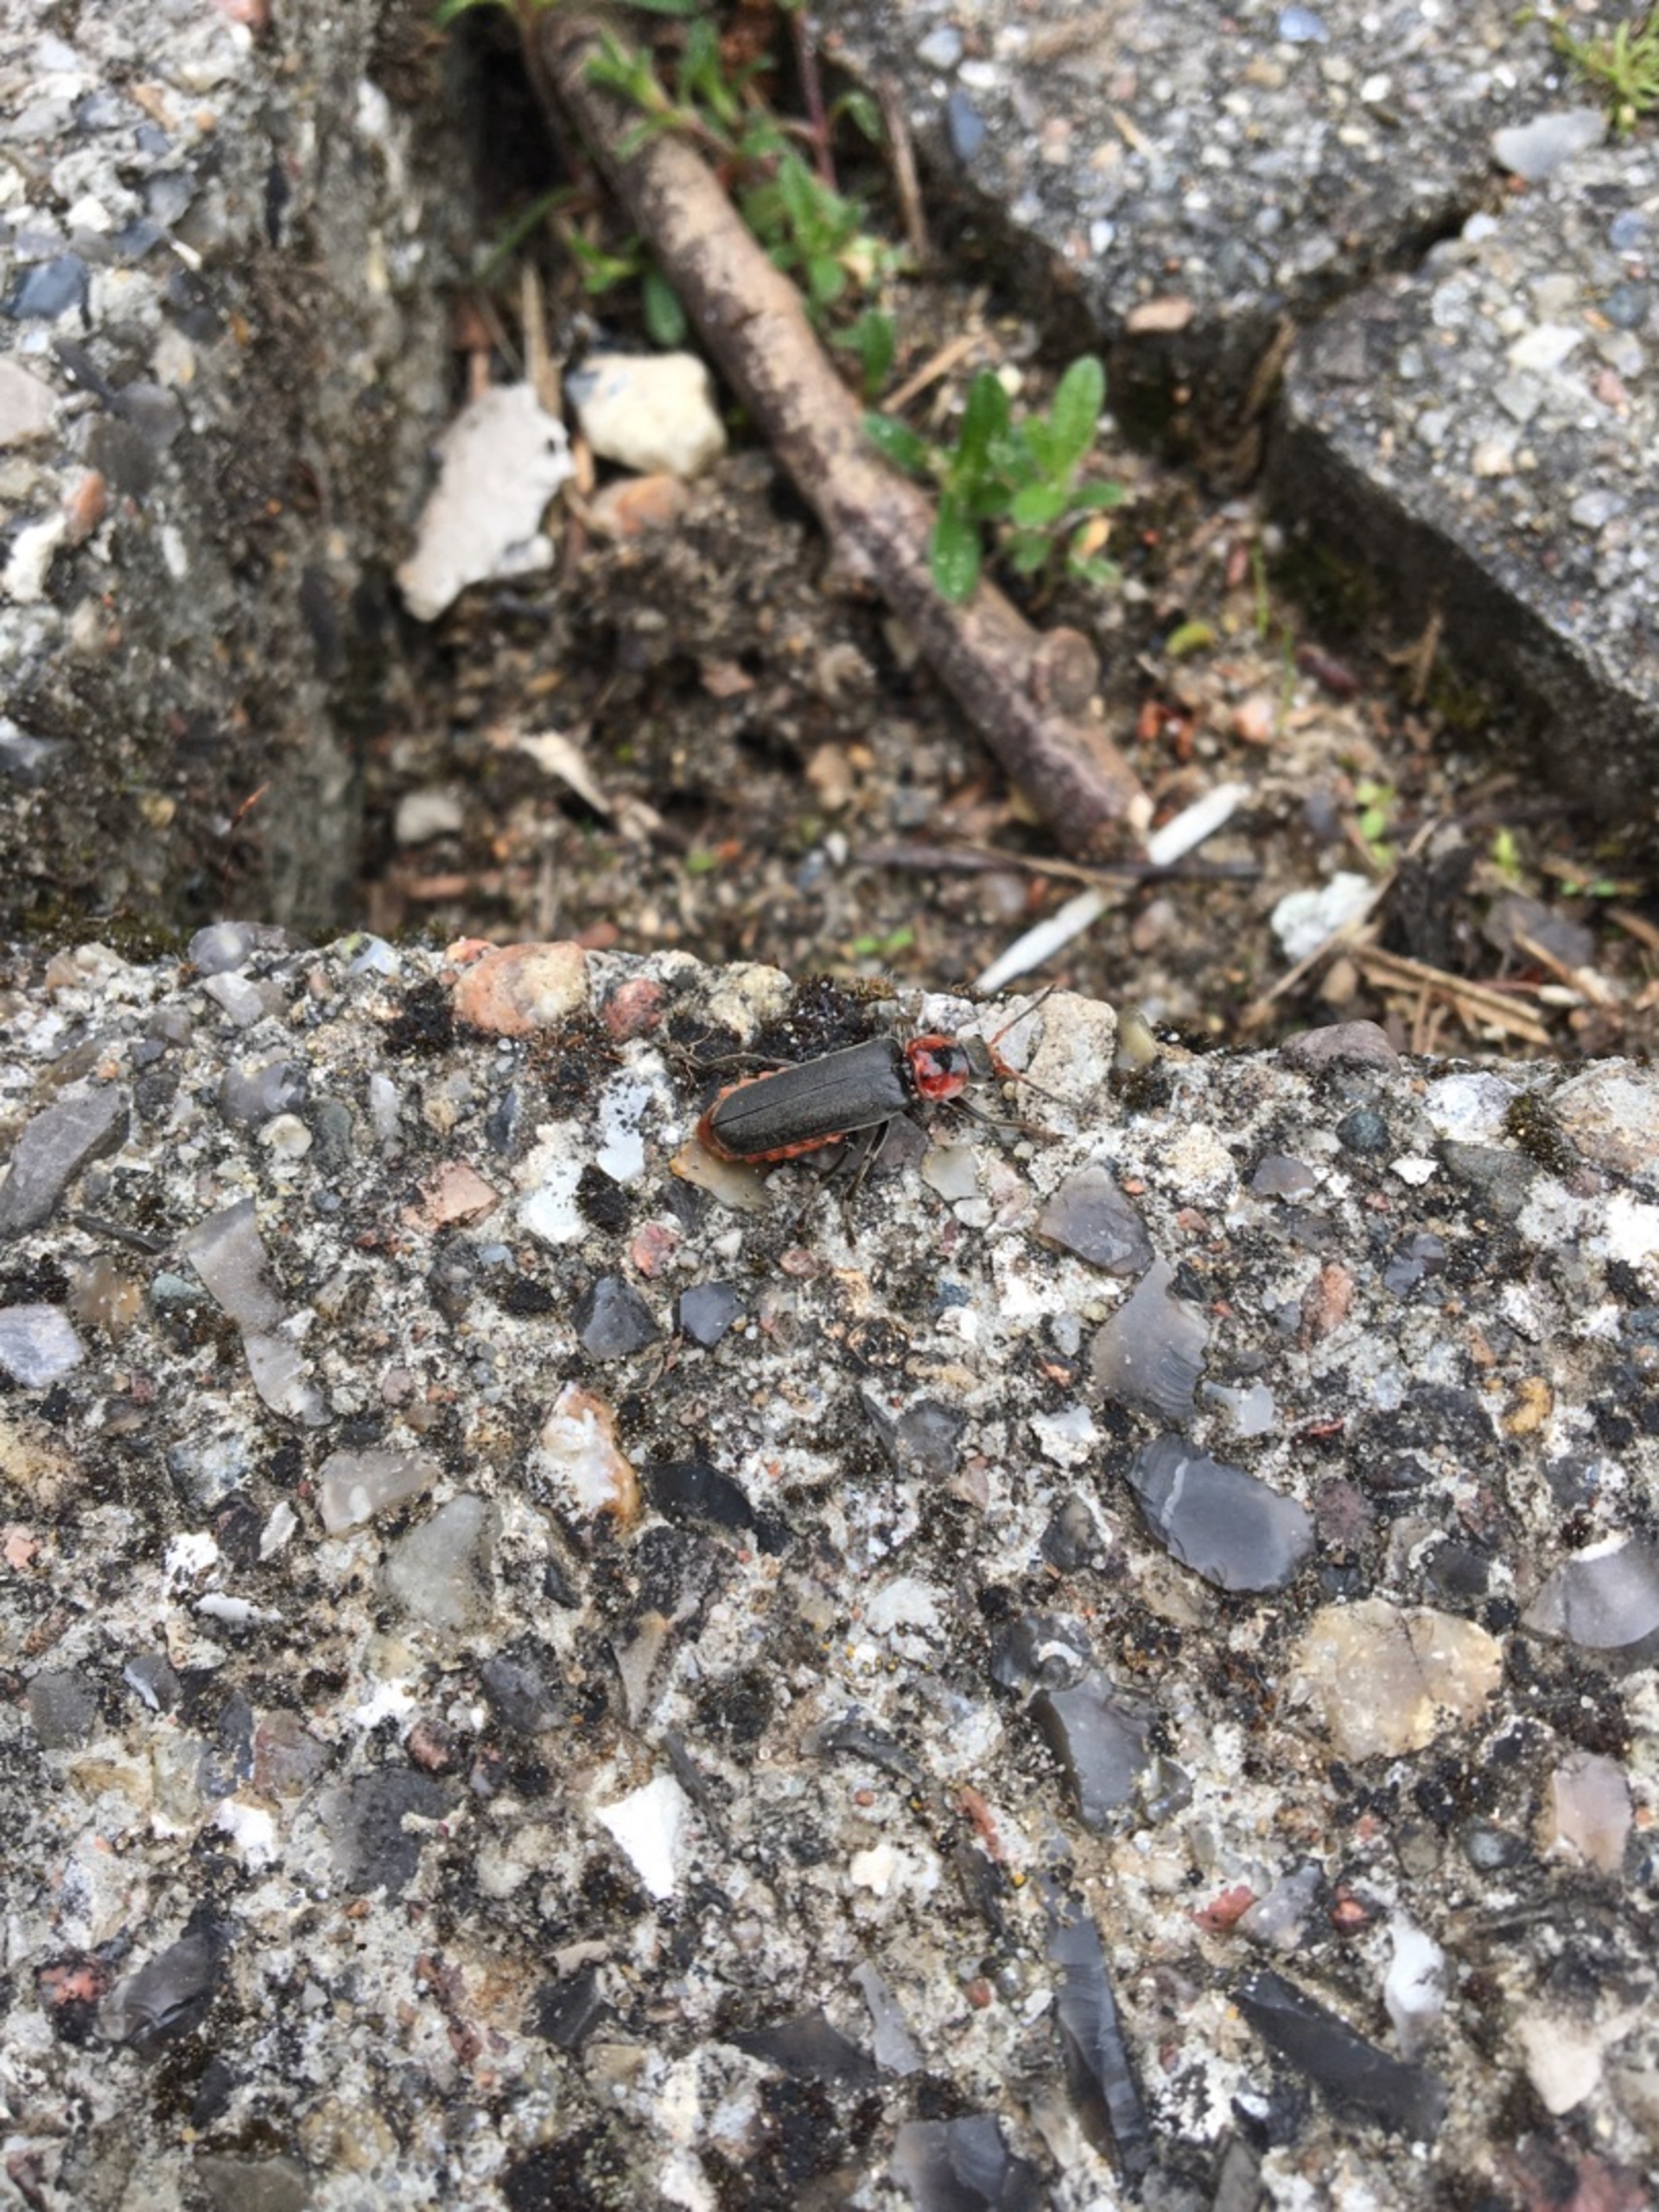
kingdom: Animalia
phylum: Arthropoda
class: Insecta
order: Coleoptera
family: Cantharidae
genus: Cantharis
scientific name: Cantharis fusca
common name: Stor blødvinge
